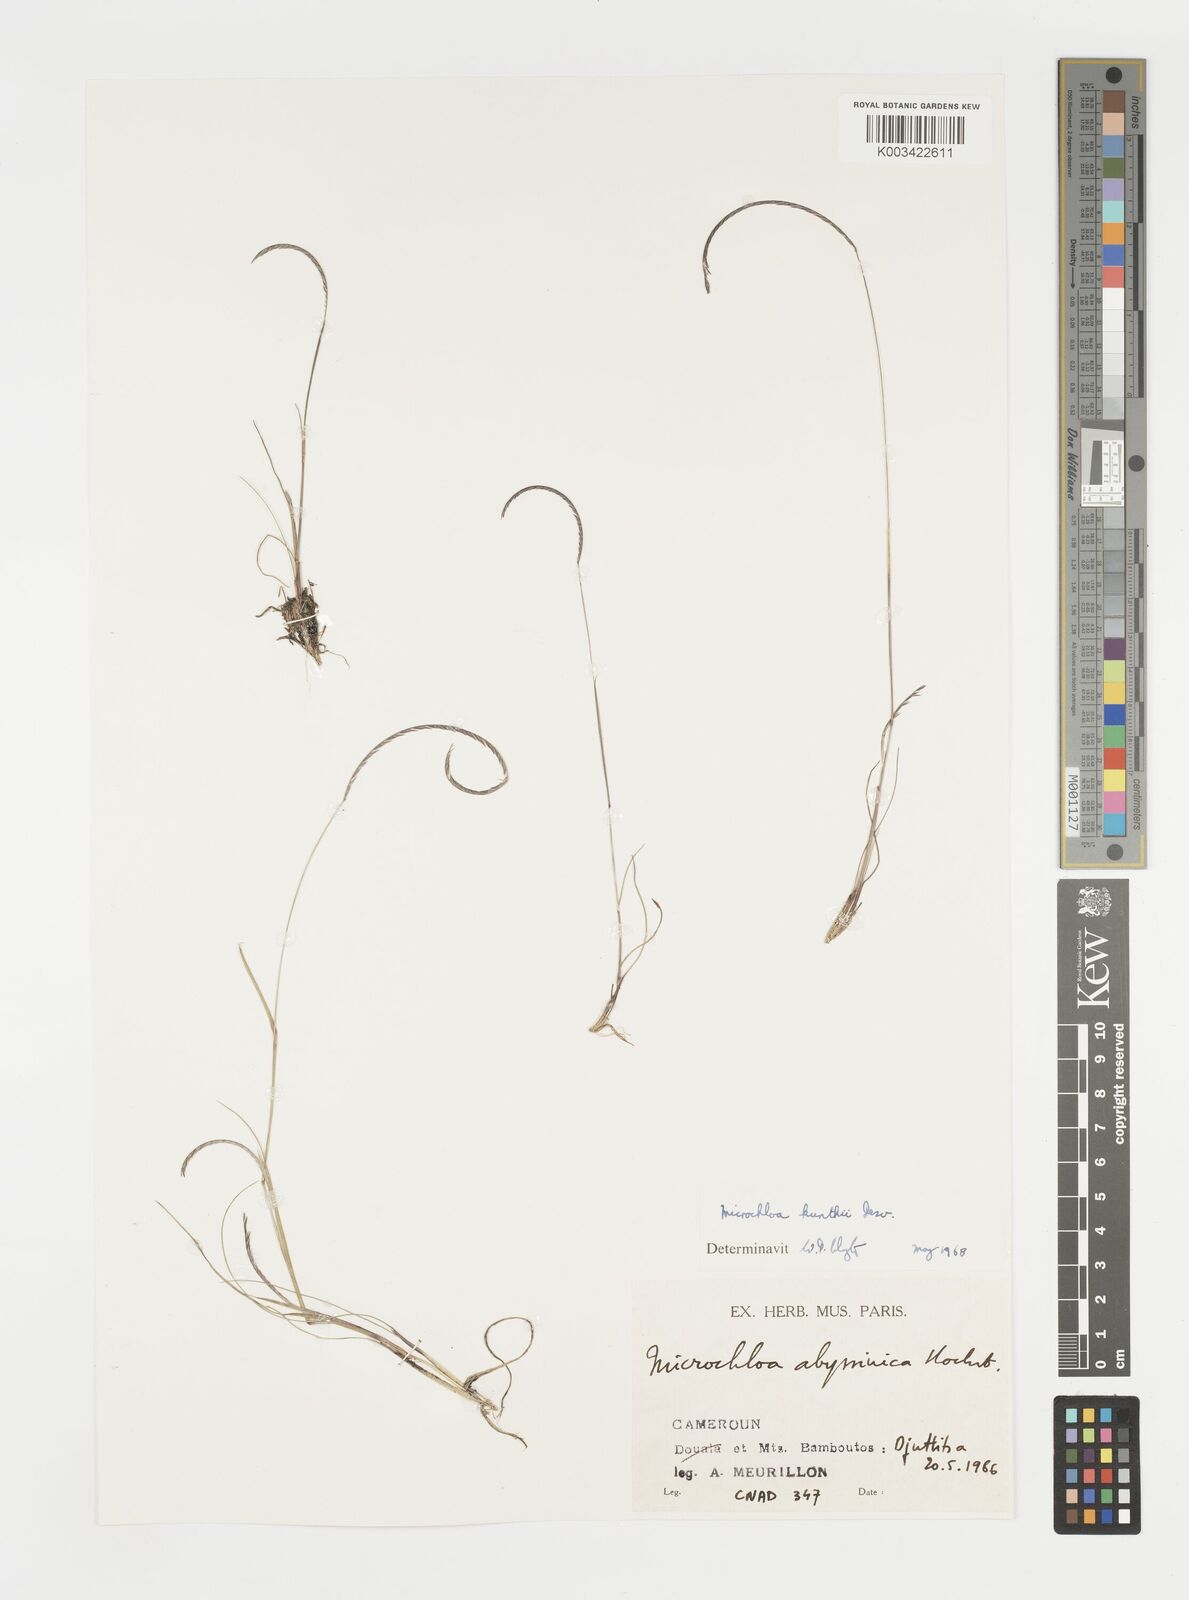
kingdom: Plantae
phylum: Tracheophyta
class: Liliopsida
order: Poales
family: Poaceae
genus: Microchloa
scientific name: Microchloa kunthii
